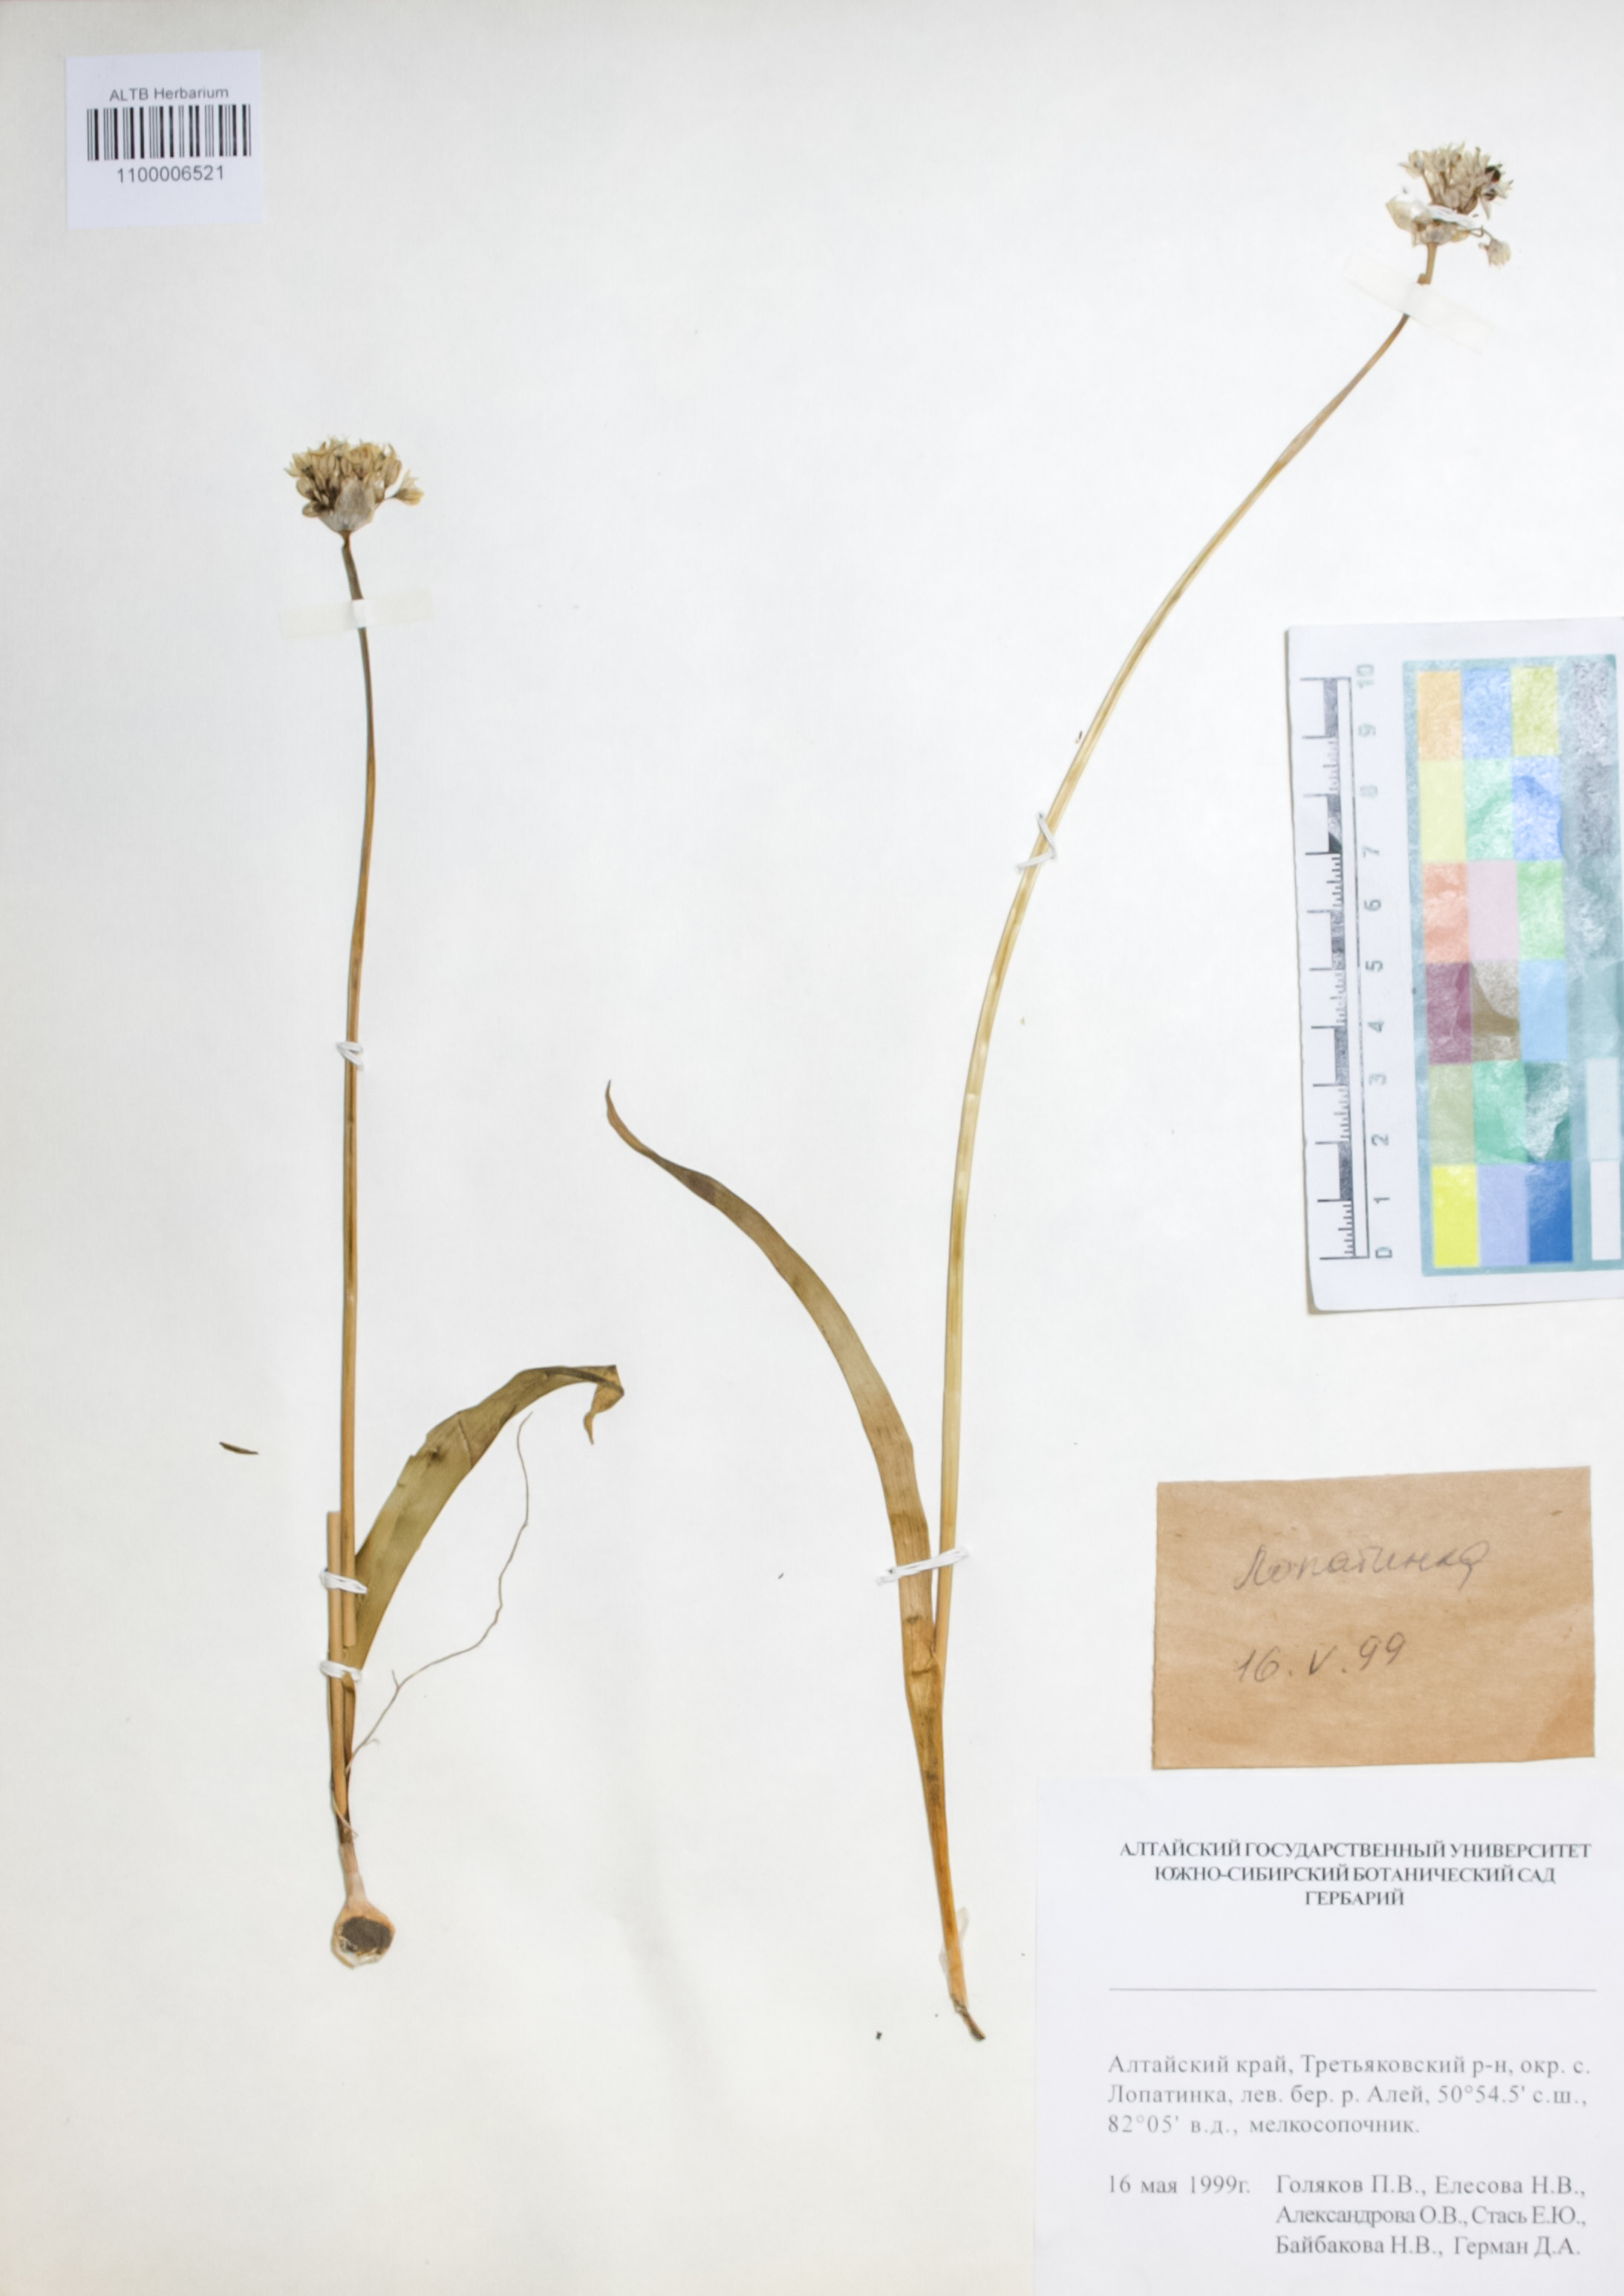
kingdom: Plantae
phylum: Tracheophyta
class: Liliopsida
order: Asparagales
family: Amaryllidaceae
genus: Allium
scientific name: Allium tulipifolium
